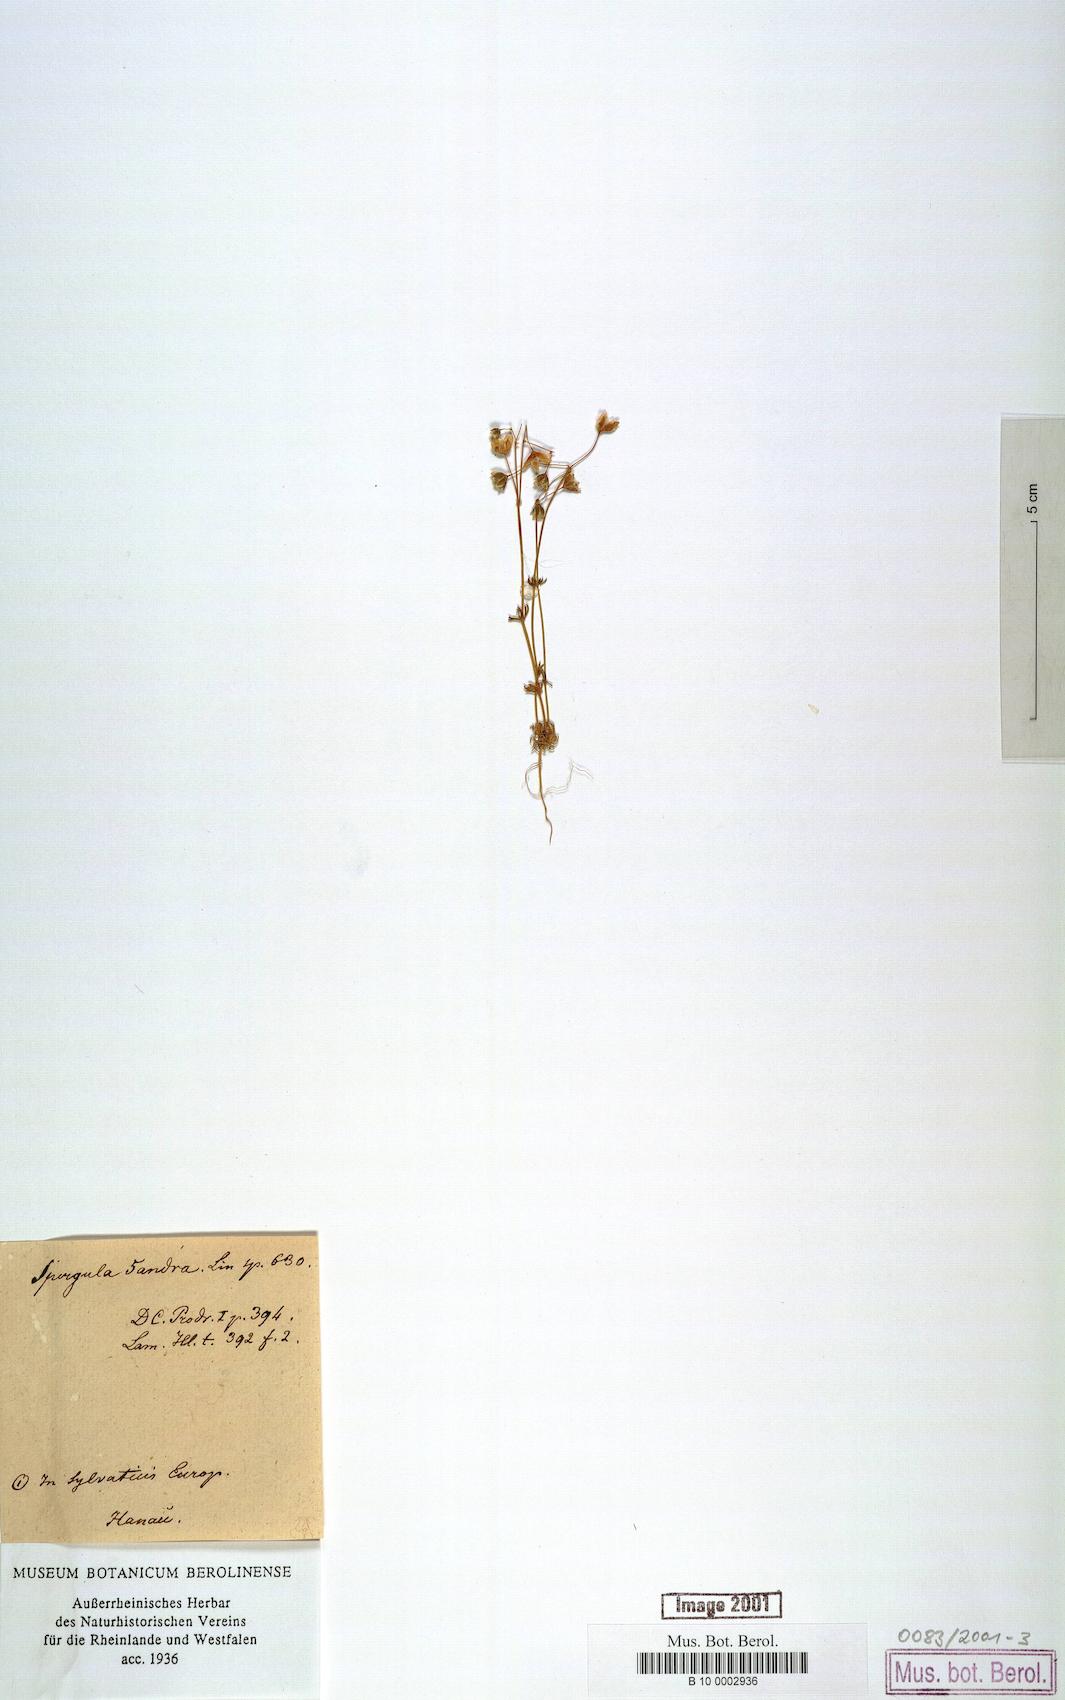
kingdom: Plantae
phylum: Tracheophyta
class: Magnoliopsida
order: Caryophyllales
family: Caryophyllaceae
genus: Spergula
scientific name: Spergula pentandra
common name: Wingstem spurry
